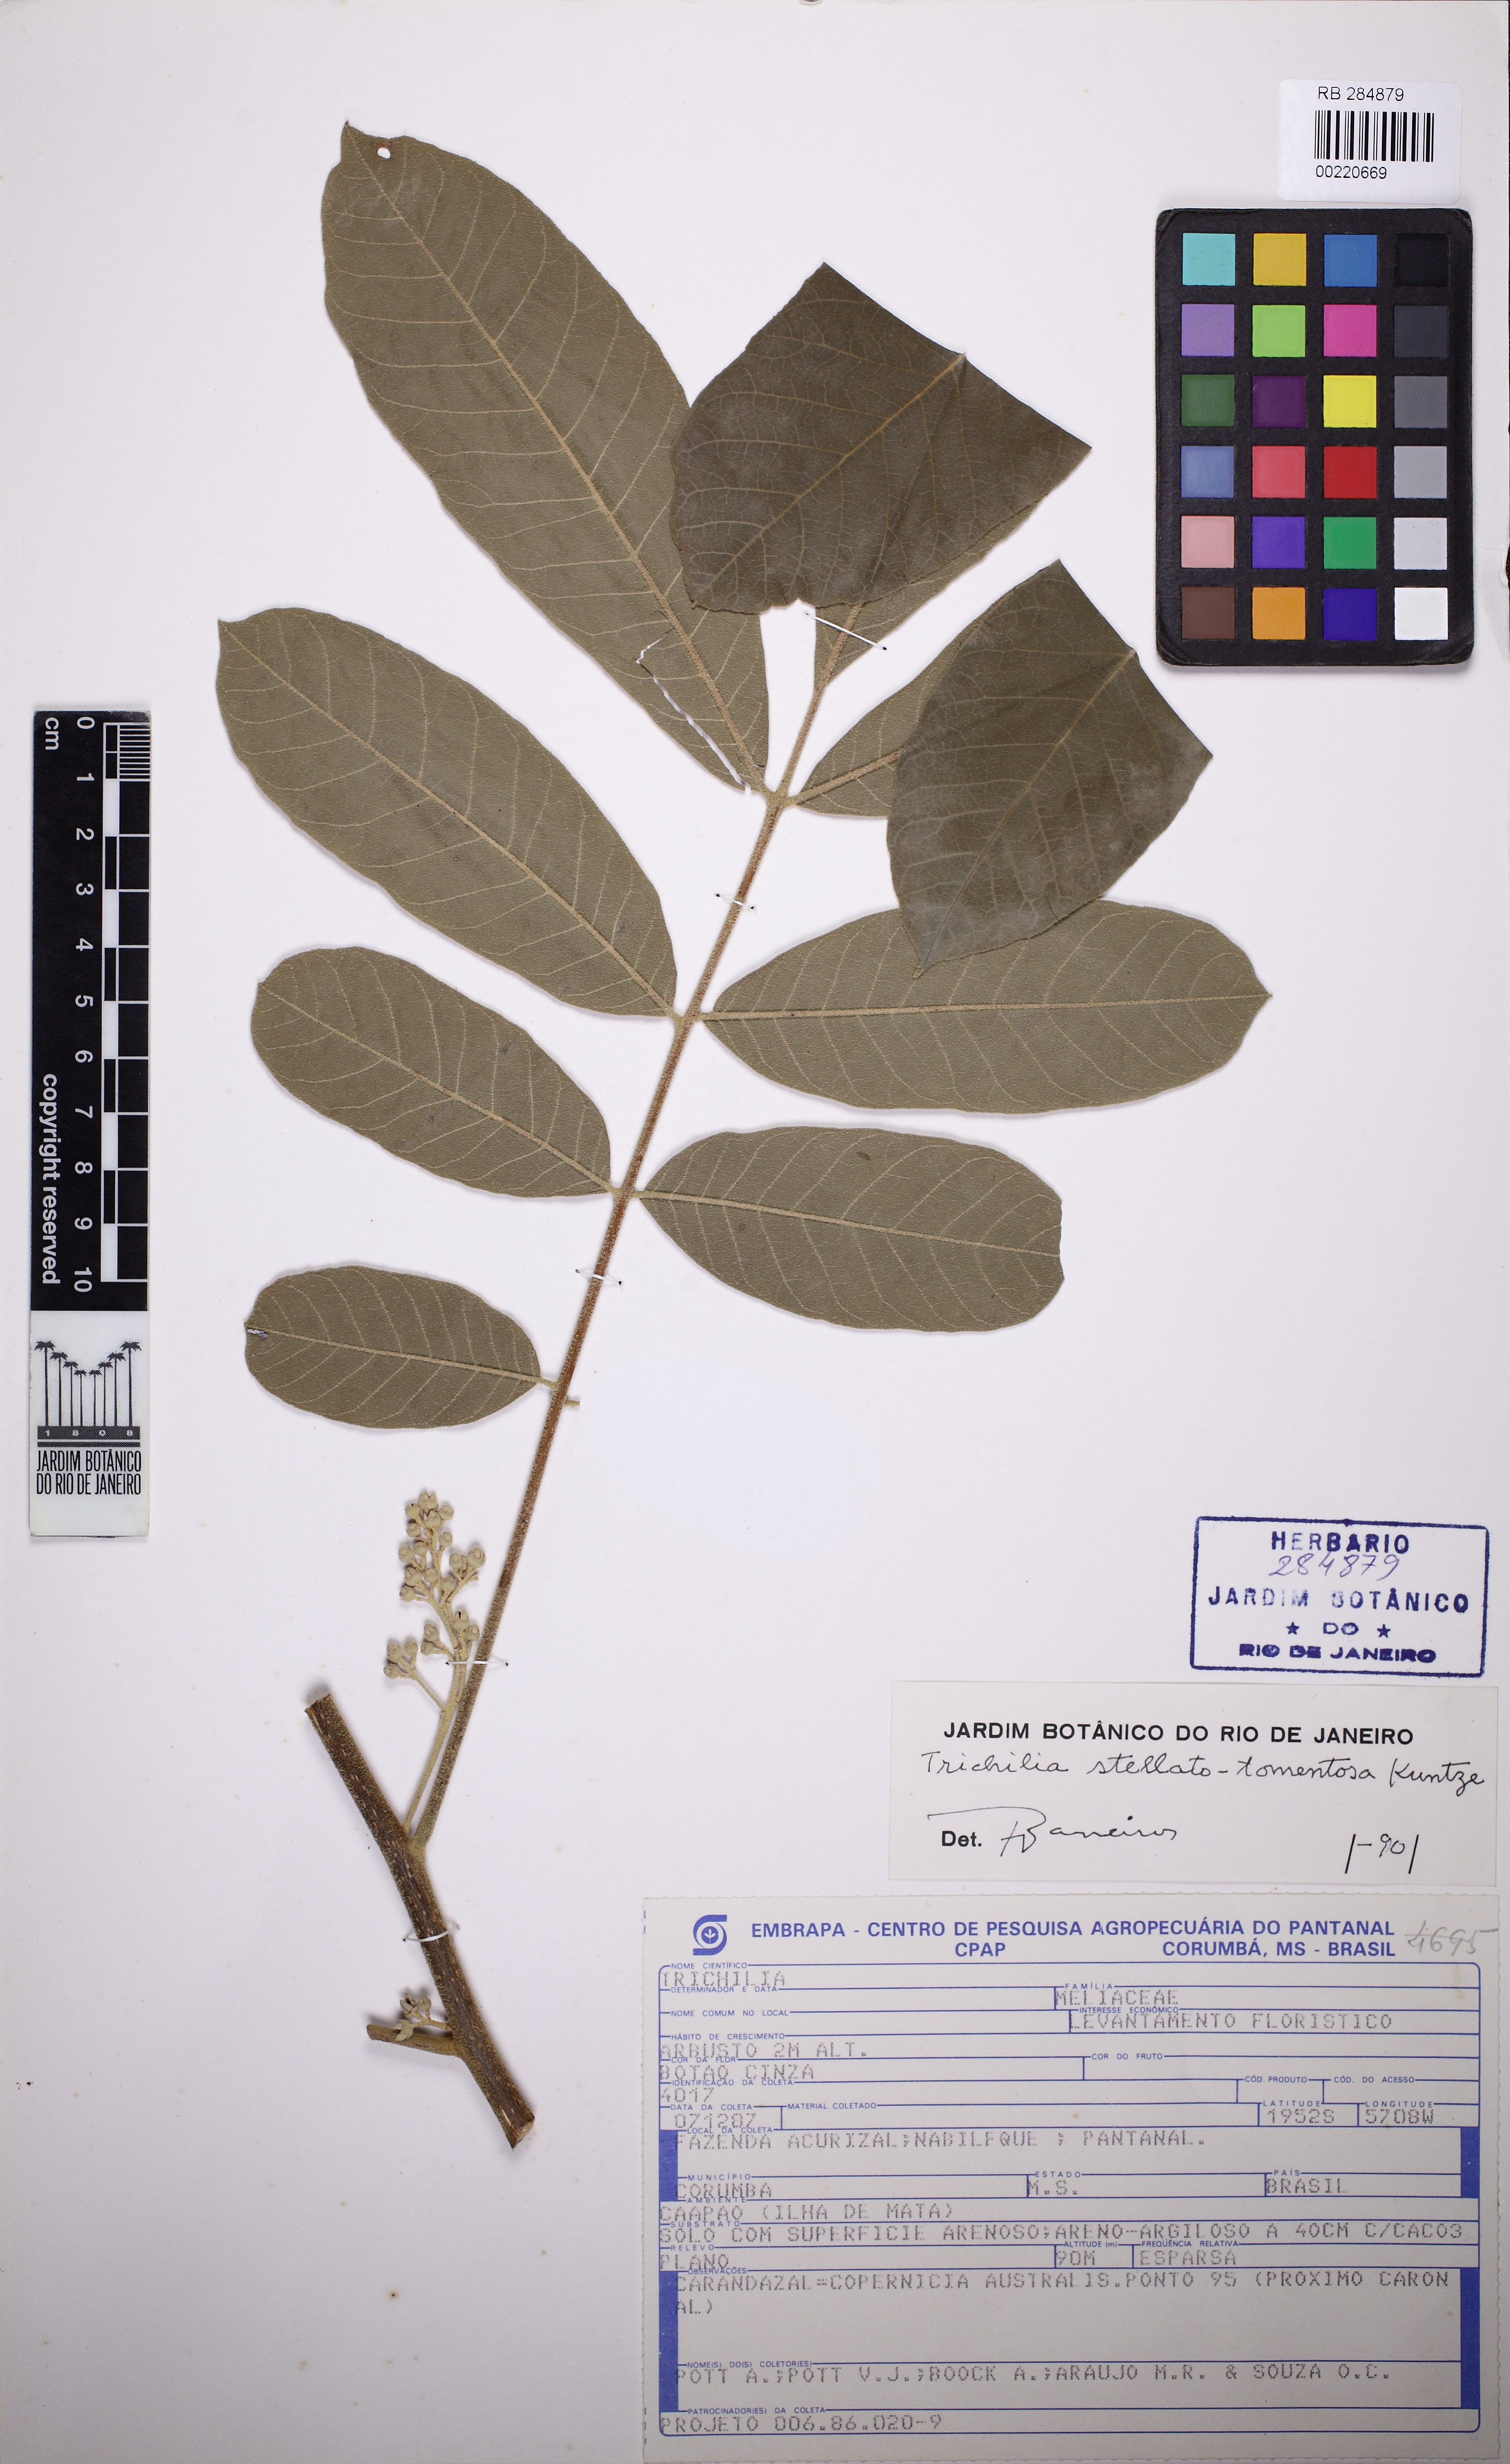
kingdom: Plantae
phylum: Tracheophyta
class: Magnoliopsida
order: Sapindales
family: Meliaceae
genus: Trichilia
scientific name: Trichilia rubra
